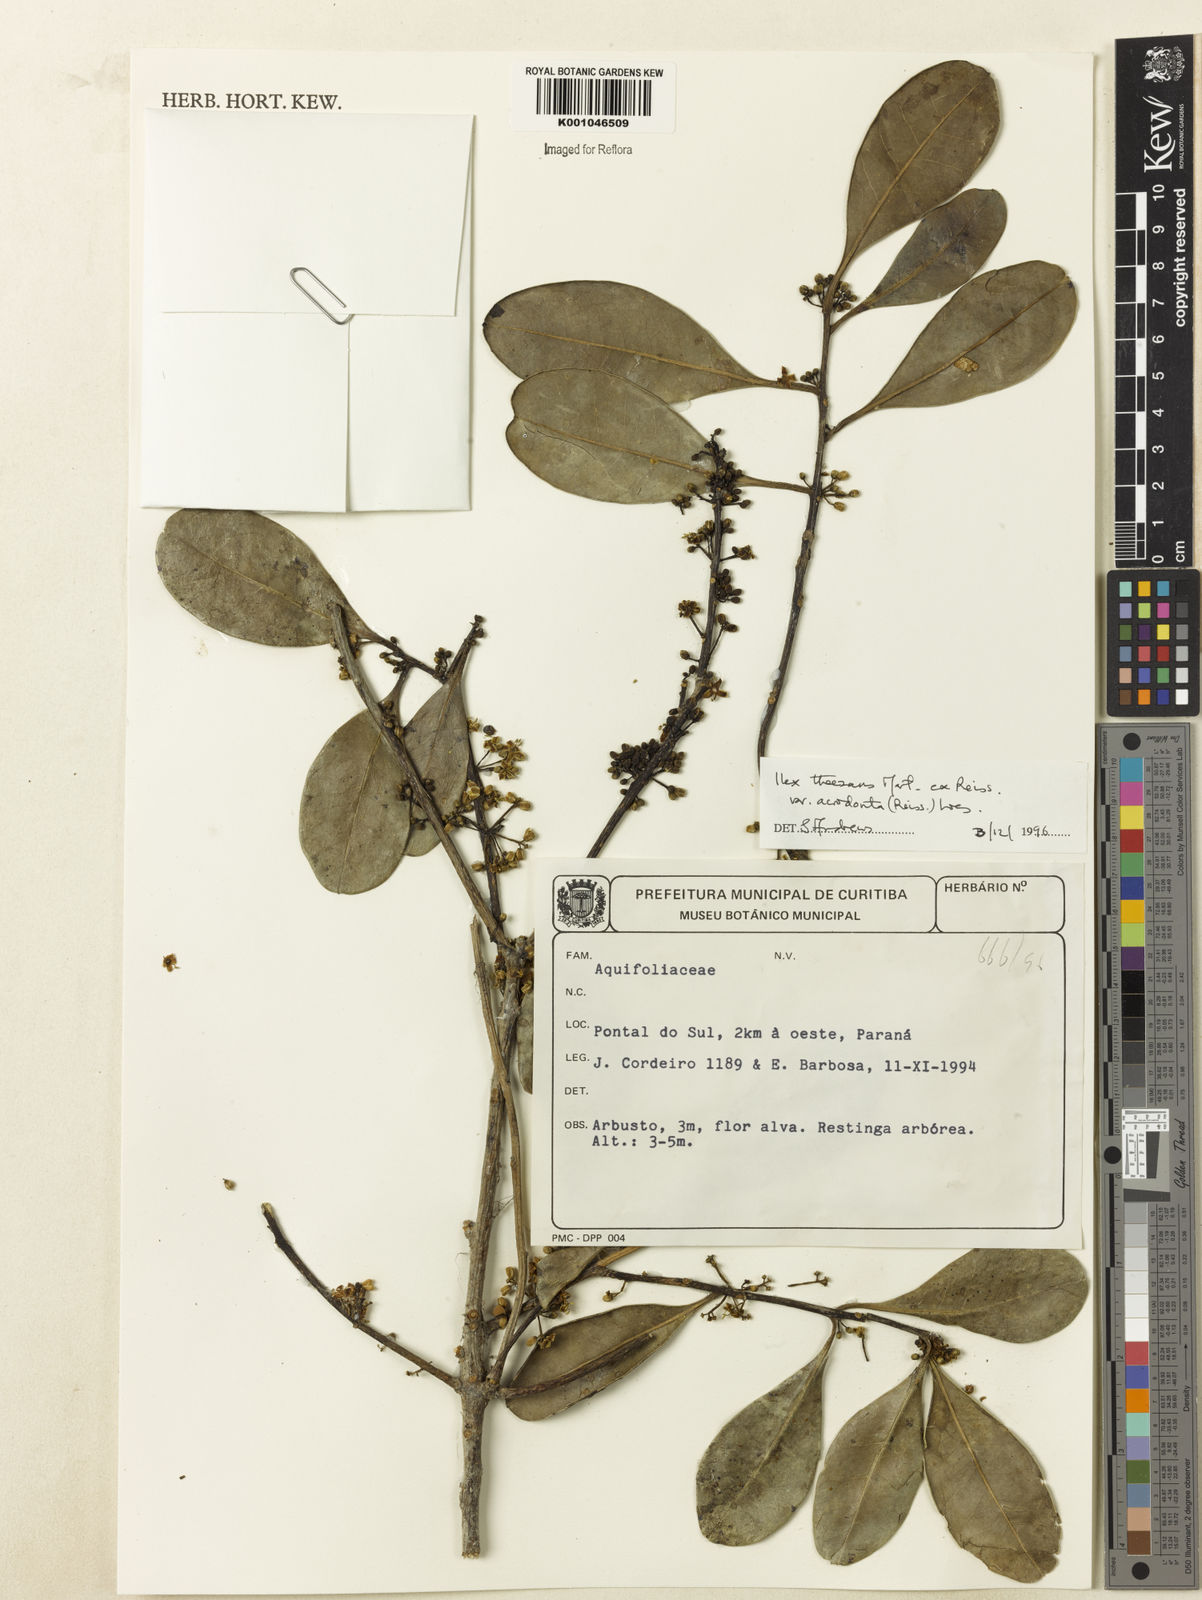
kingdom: Plantae
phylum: Tracheophyta
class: Magnoliopsida
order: Aquifoliales
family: Aquifoliaceae
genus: Ilex
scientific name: Ilex theezans
